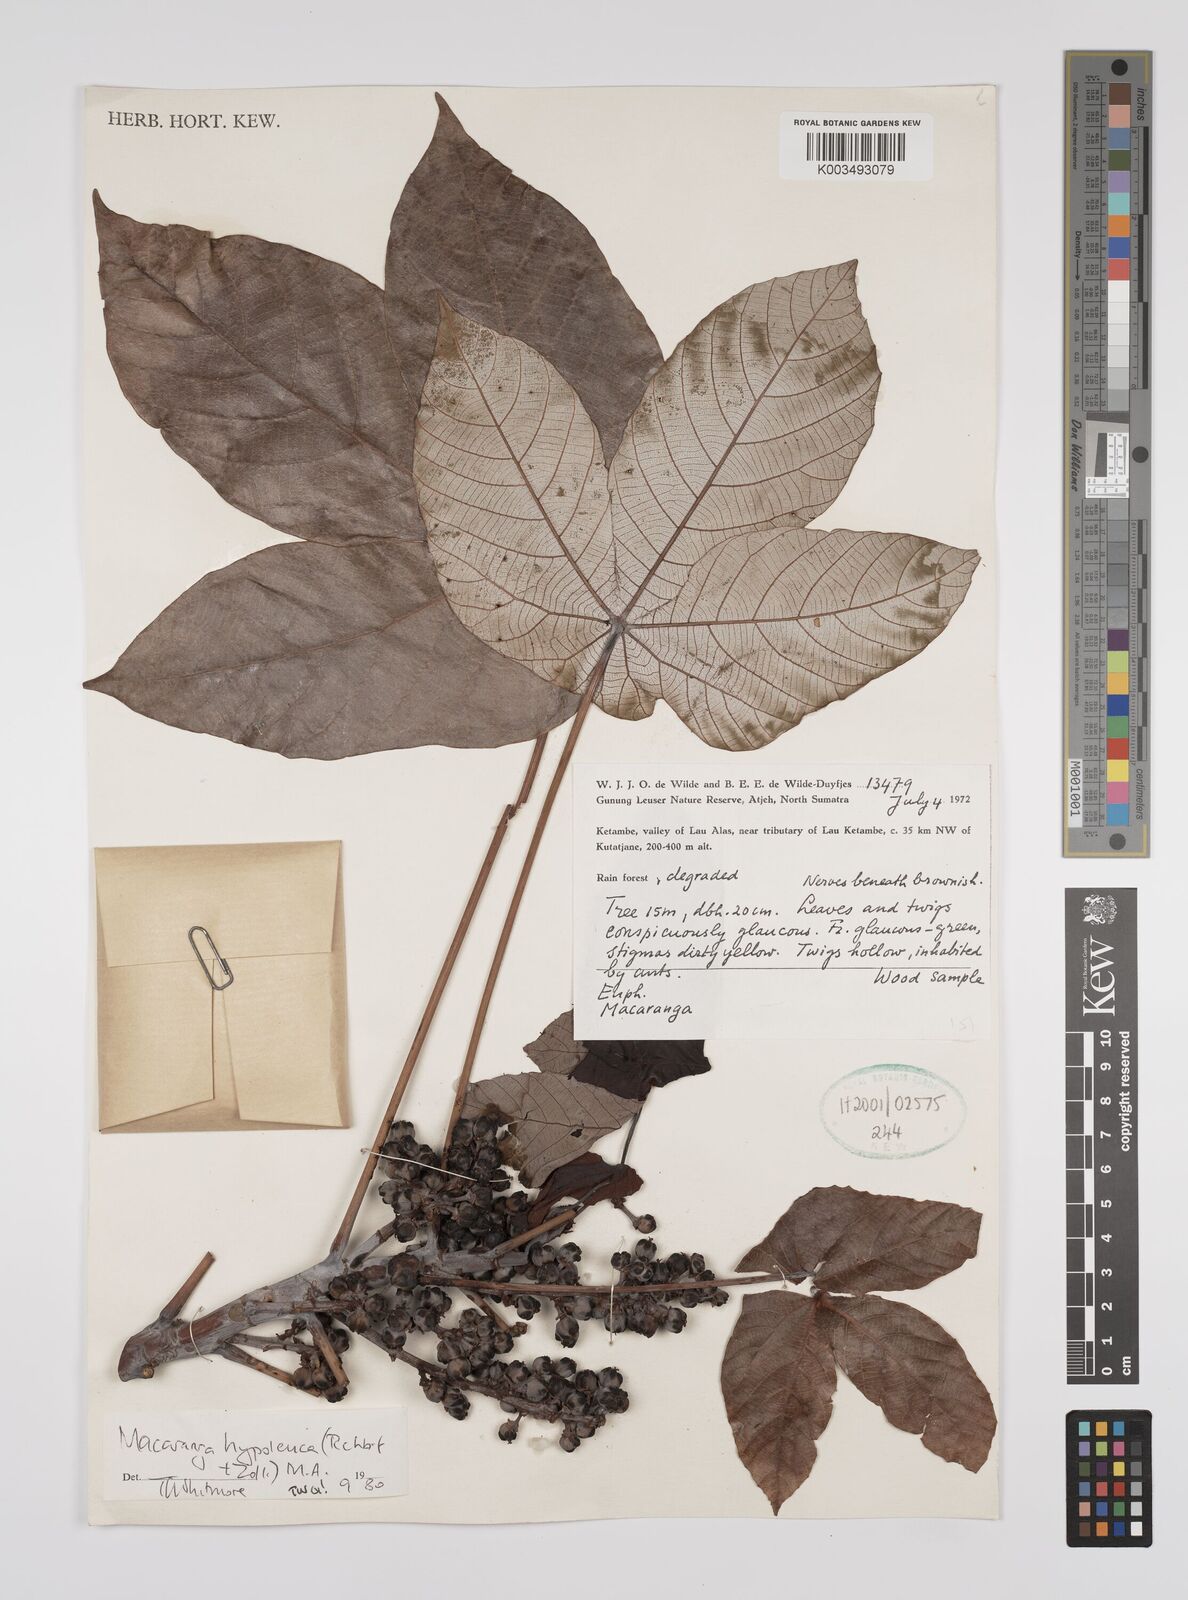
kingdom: Plantae
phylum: Tracheophyta
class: Magnoliopsida
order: Malpighiales
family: Euphorbiaceae
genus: Macaranga
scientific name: Macaranga hypoleuca
